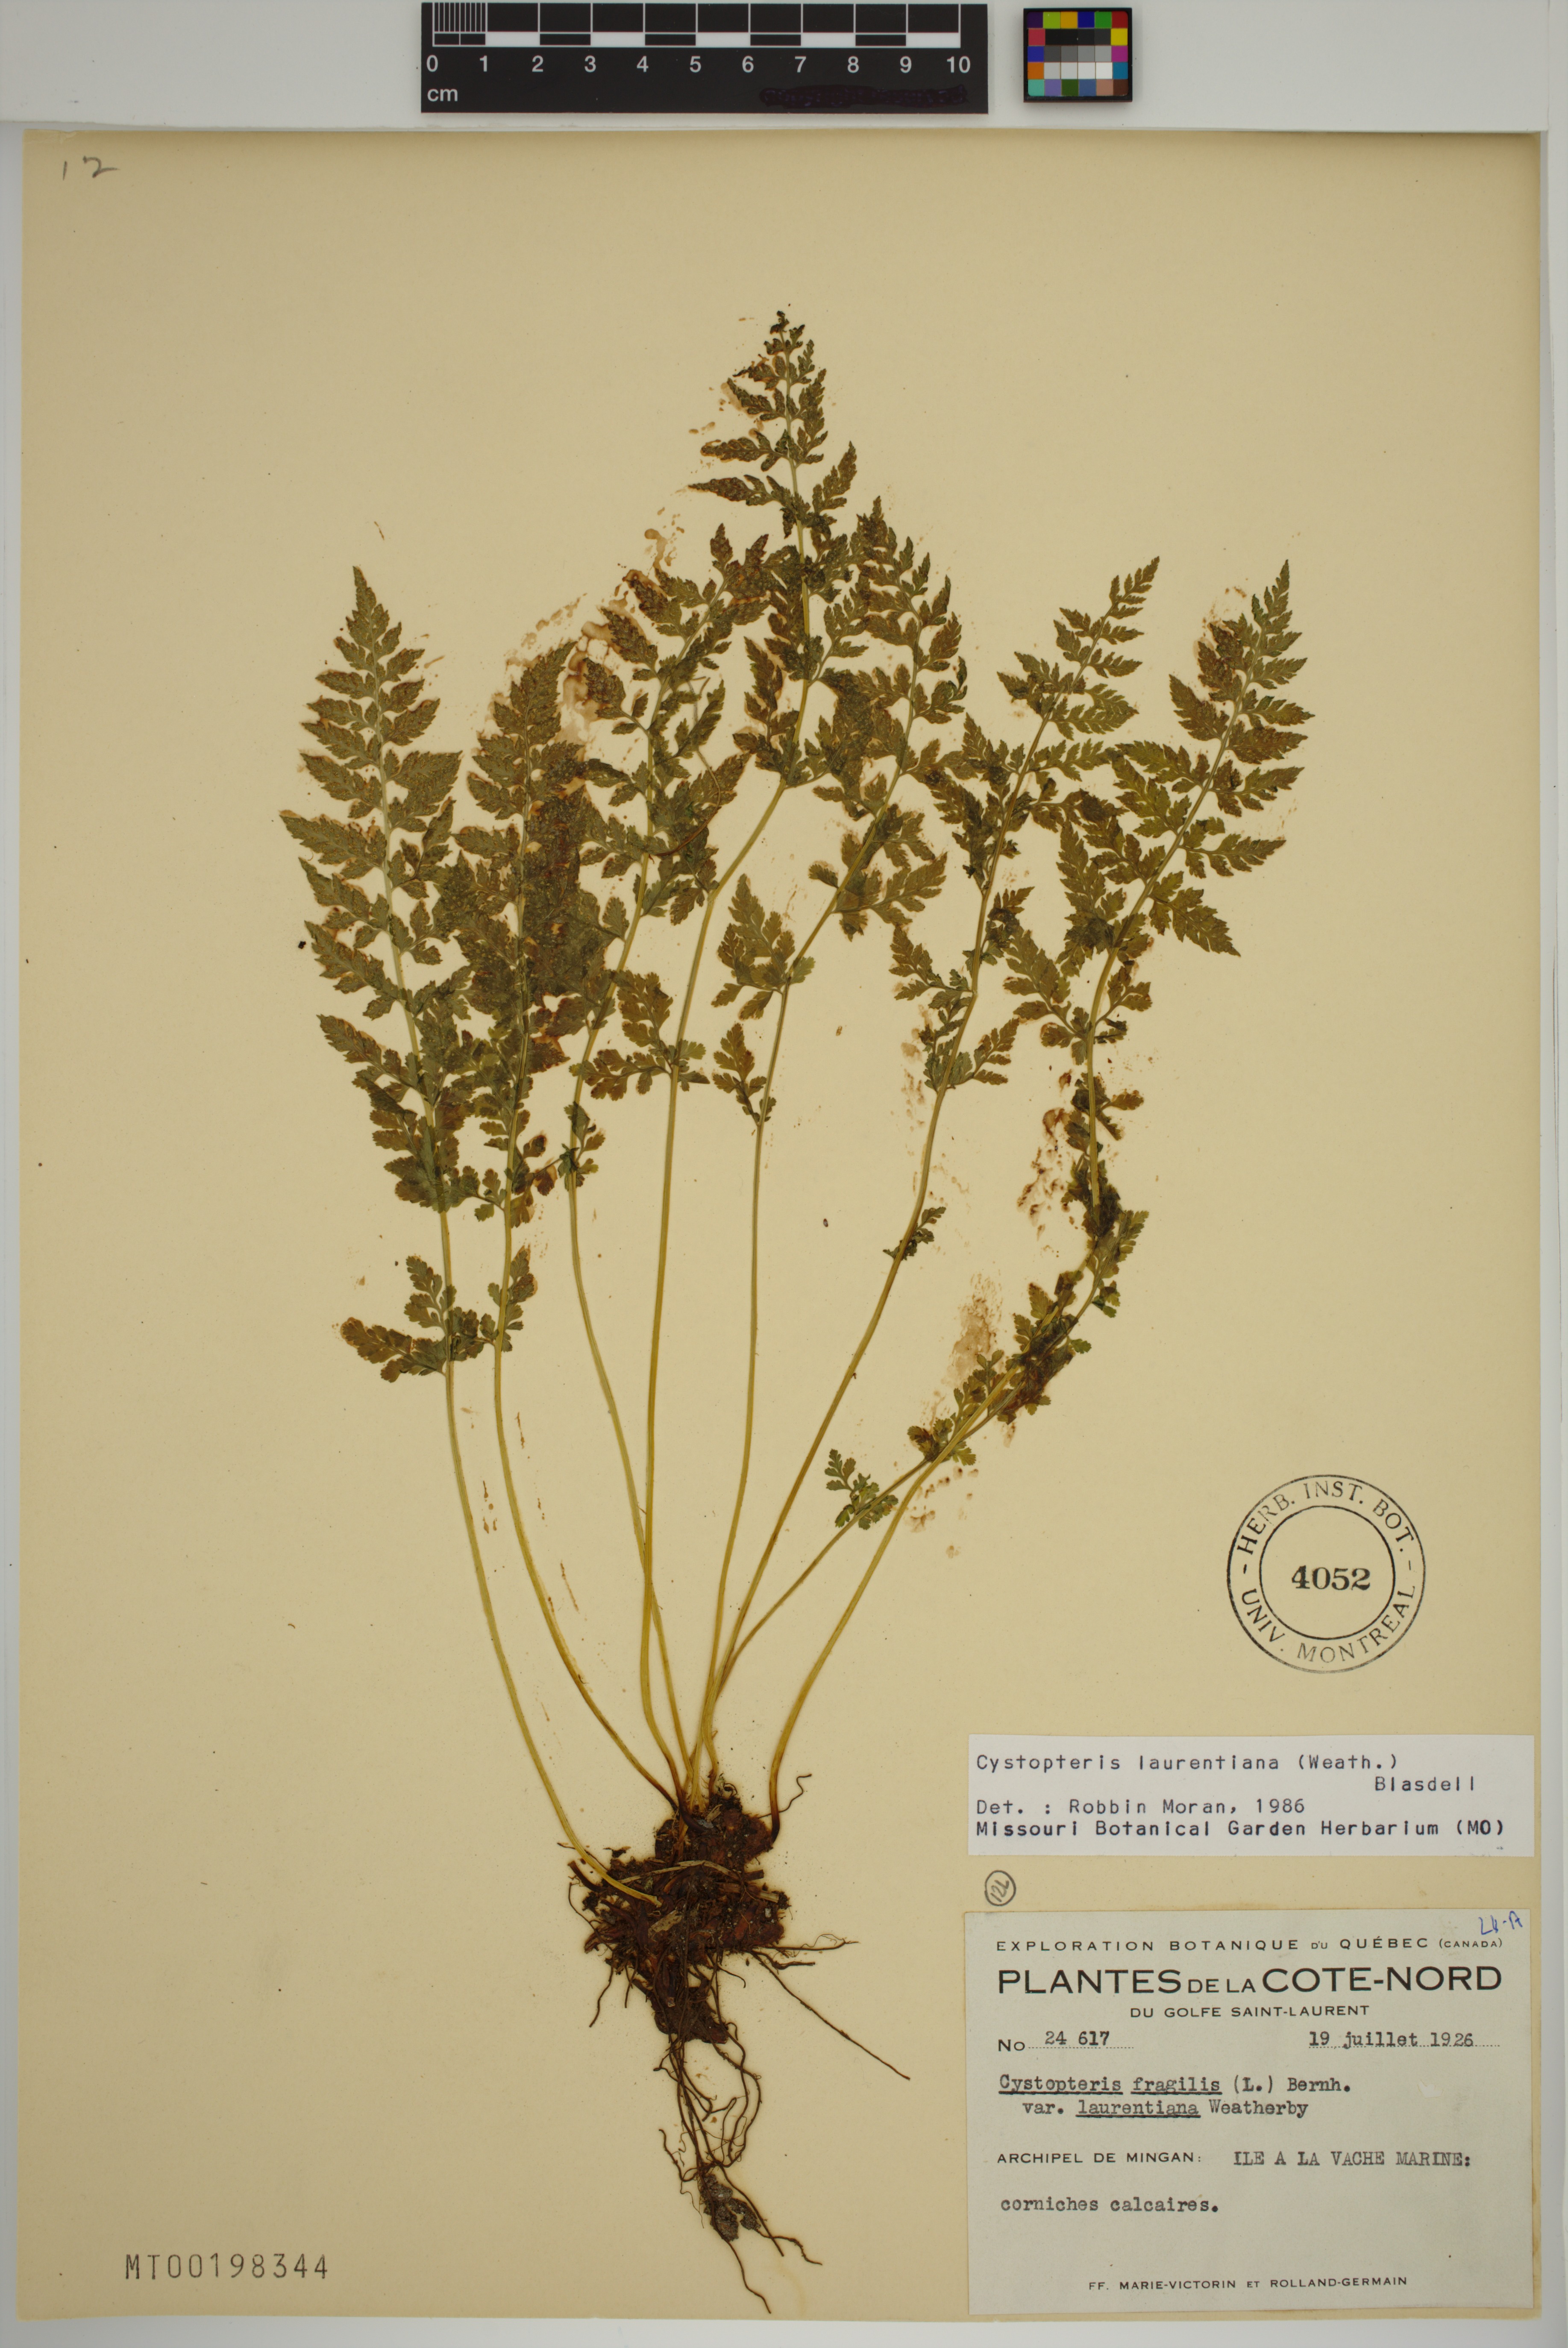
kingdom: Plantae
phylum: Tracheophyta
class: Polypodiopsida
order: Polypodiales
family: Cystopteridaceae
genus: Cystopteris
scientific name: Cystopteris laurentiana
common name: Blasdell's laurentian bladder fern
